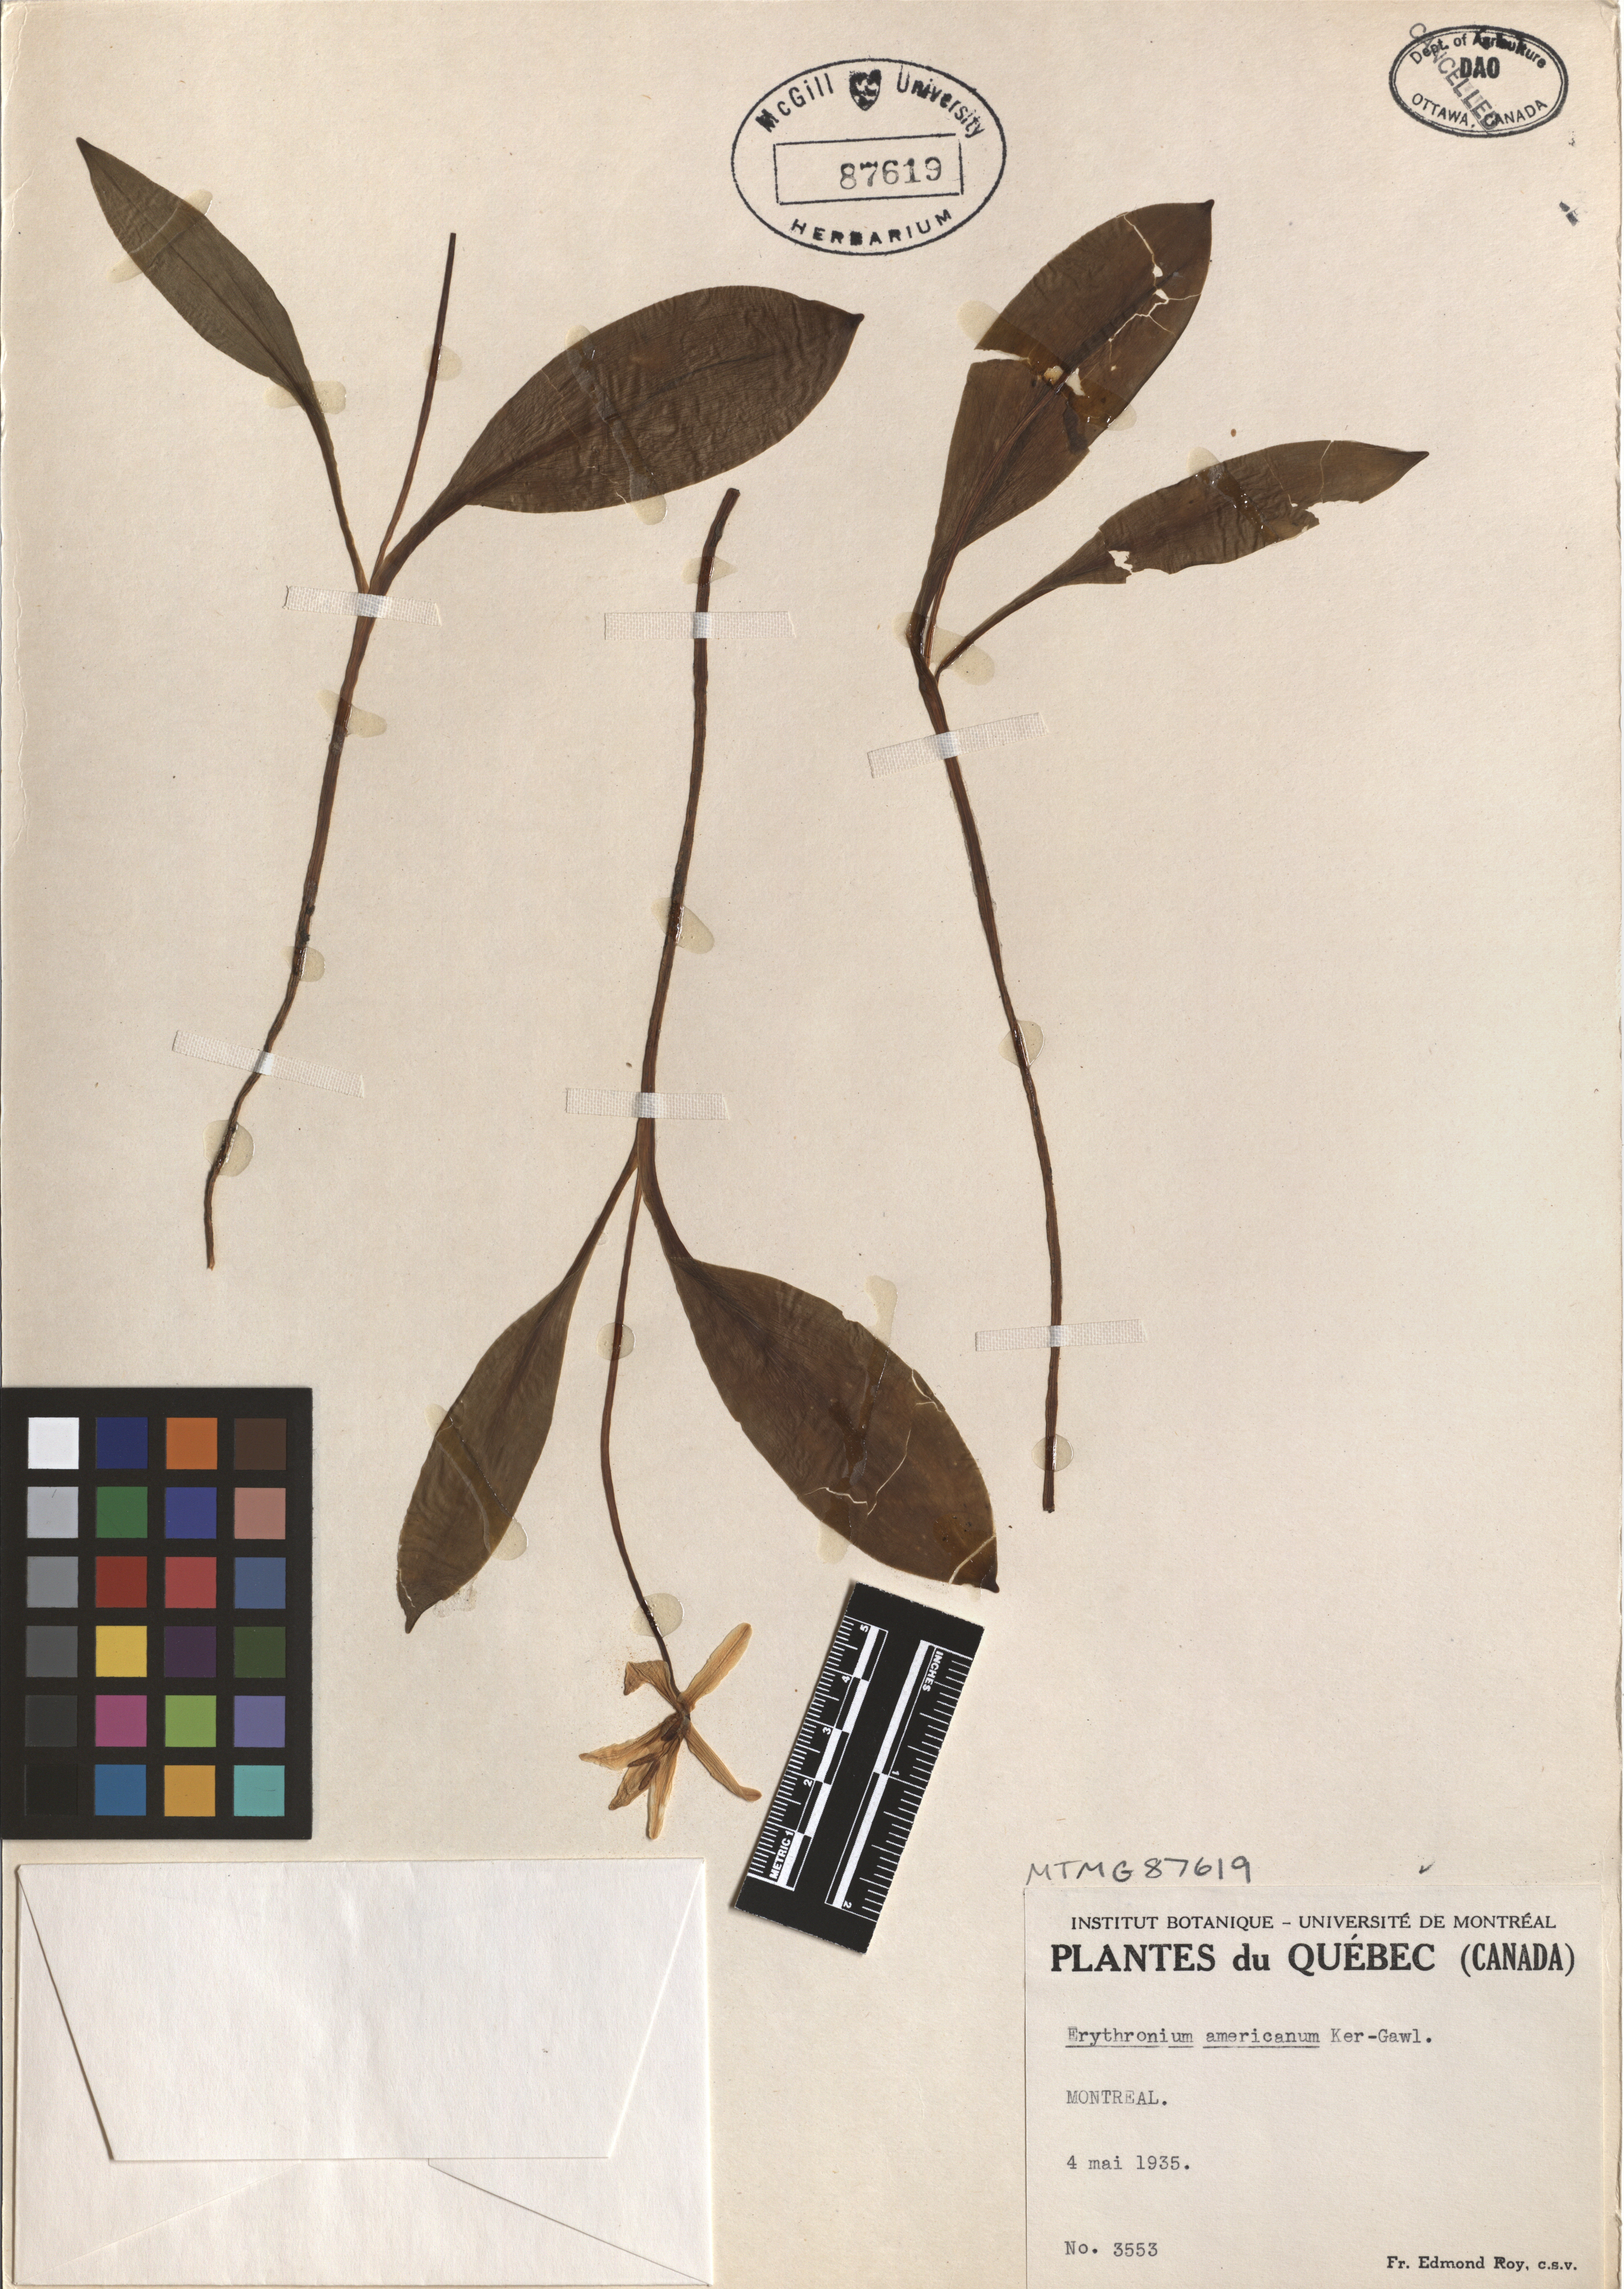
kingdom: Plantae
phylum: Tracheophyta
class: Liliopsida
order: Liliales
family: Liliaceae
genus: Erythronium
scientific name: Erythronium americanum
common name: Yellow adder's-tongue
